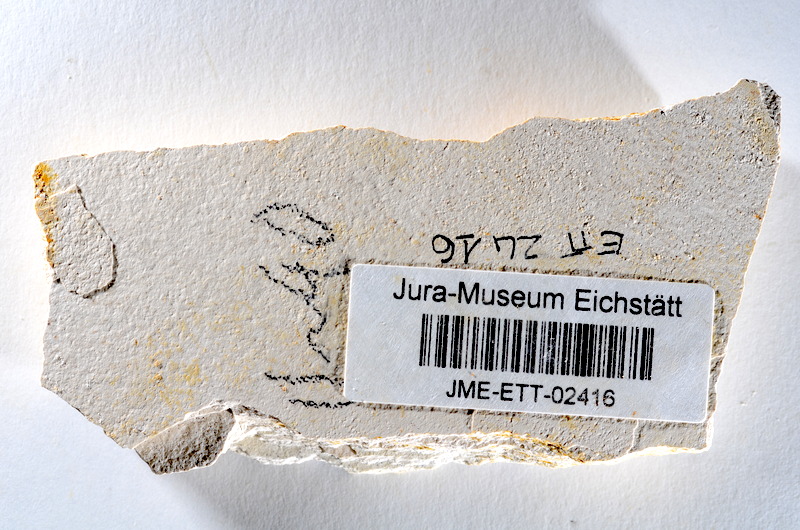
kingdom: Animalia
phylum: Chordata
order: Salmoniformes
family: Orthogonikleithridae
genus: Orthogonikleithrus
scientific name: Orthogonikleithrus hoelli
